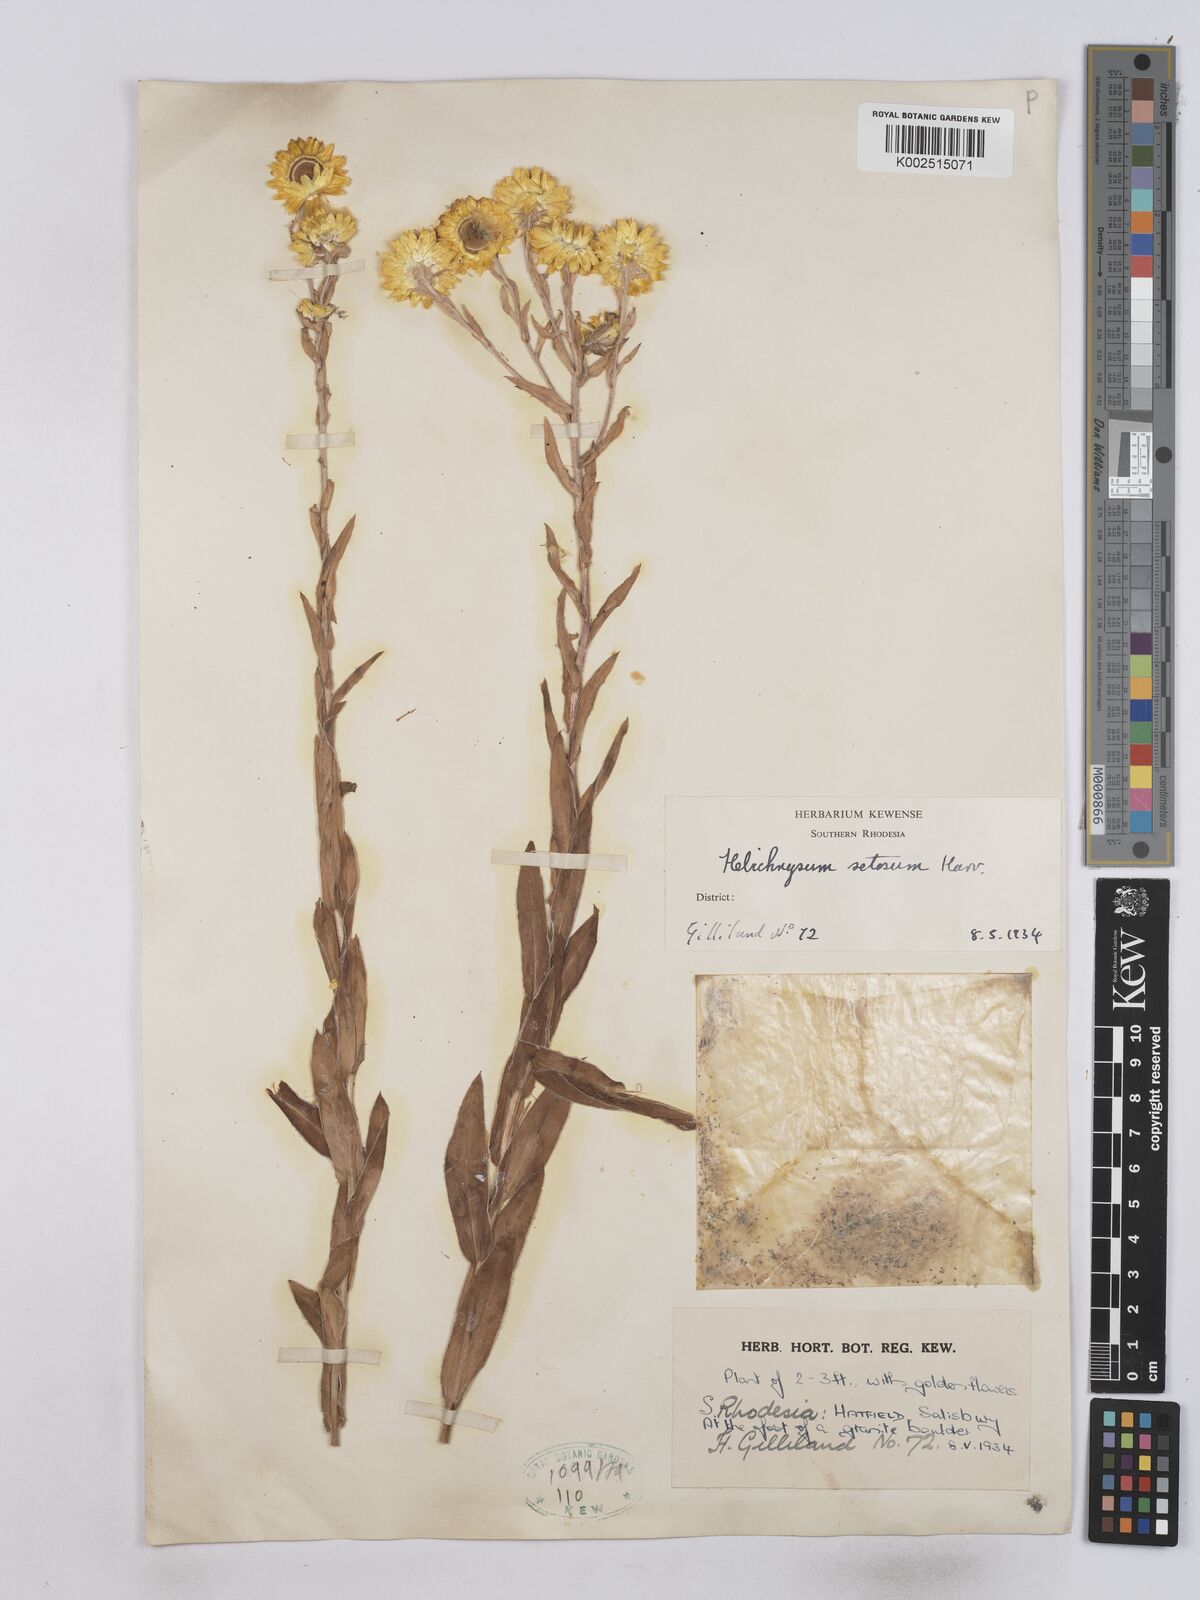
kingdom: Plantae
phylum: Tracheophyta
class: Magnoliopsida
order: Asterales
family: Asteraceae
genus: Helichrysum
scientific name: Helichrysum setosum
